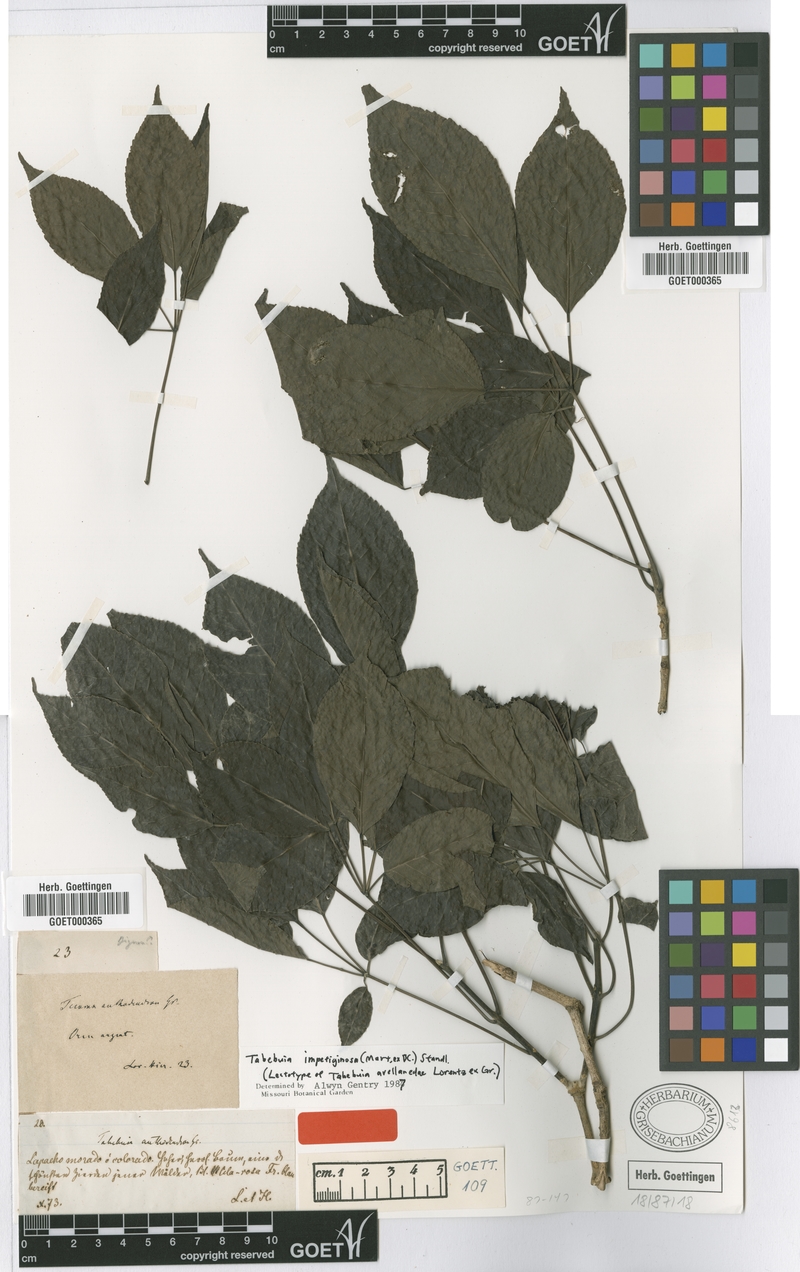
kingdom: Plantae
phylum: Tracheophyta
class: Magnoliopsida
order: Lamiales
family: Bignoniaceae
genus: Handroanthus
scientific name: Handroanthus impetiginosum
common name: Pink trumpet tree
